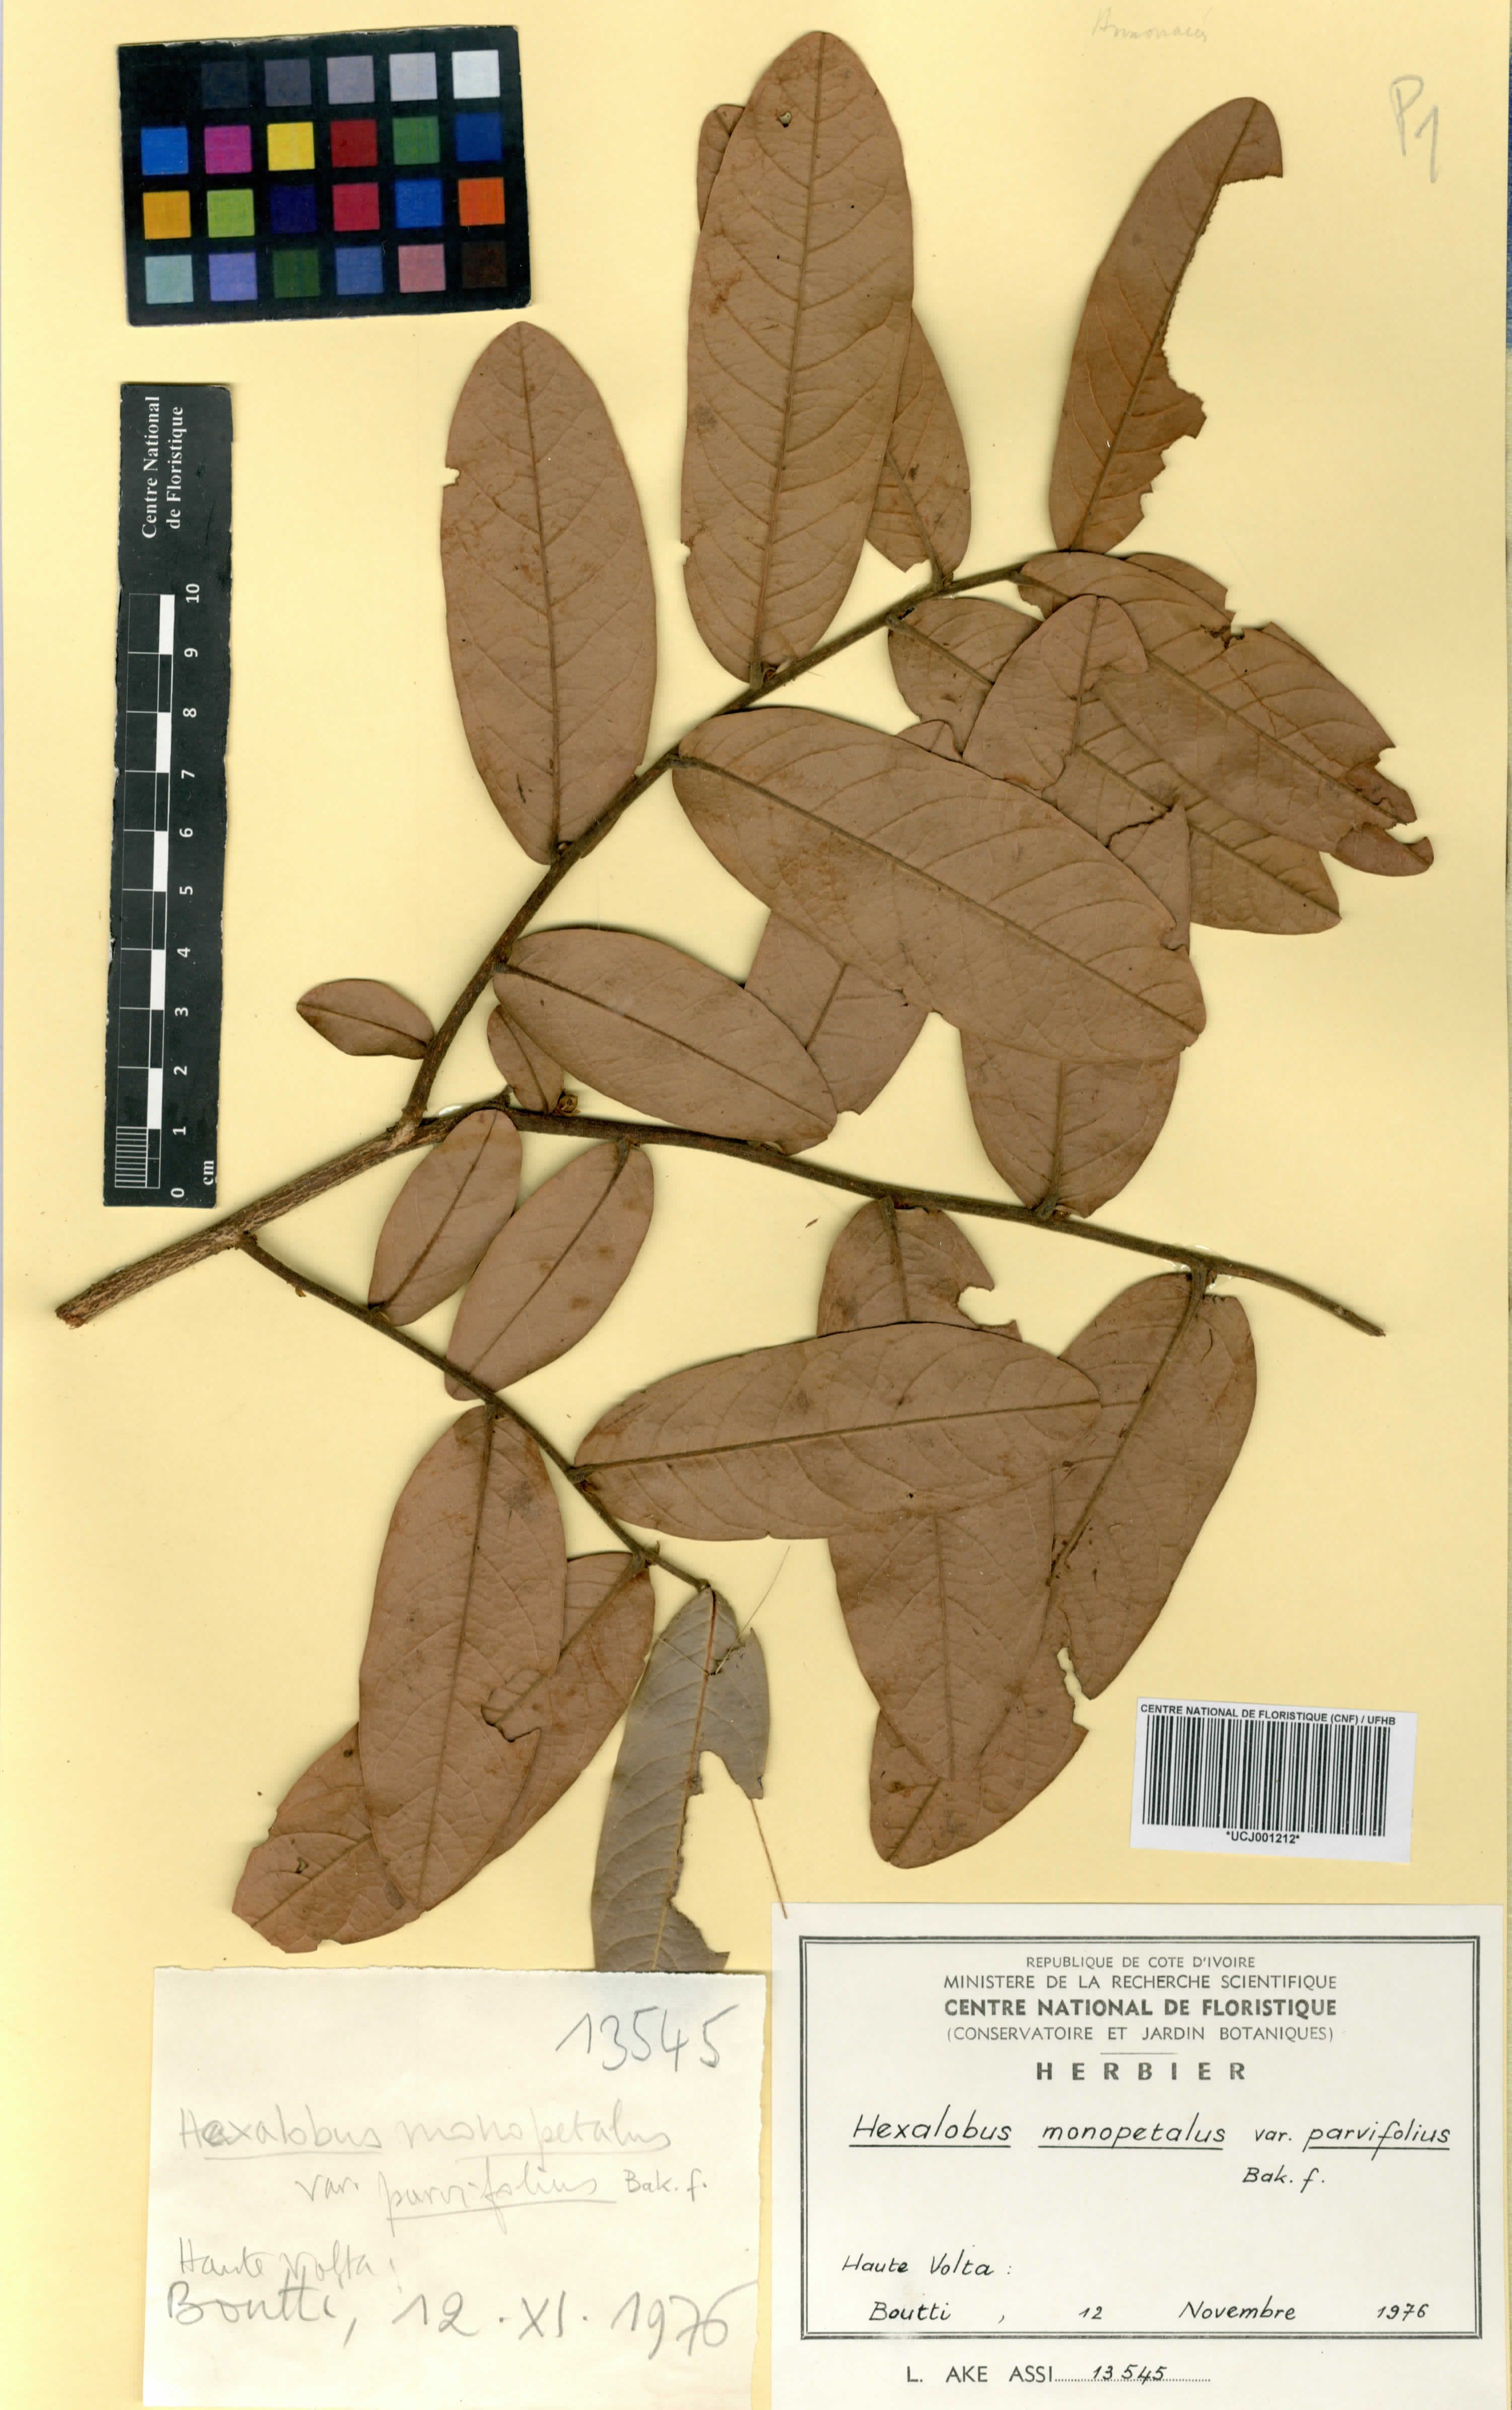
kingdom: Plantae
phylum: Tracheophyta
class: Magnoliopsida
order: Magnoliales
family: Annonaceae
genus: Hexalobus
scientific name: Hexalobus monopetalus
